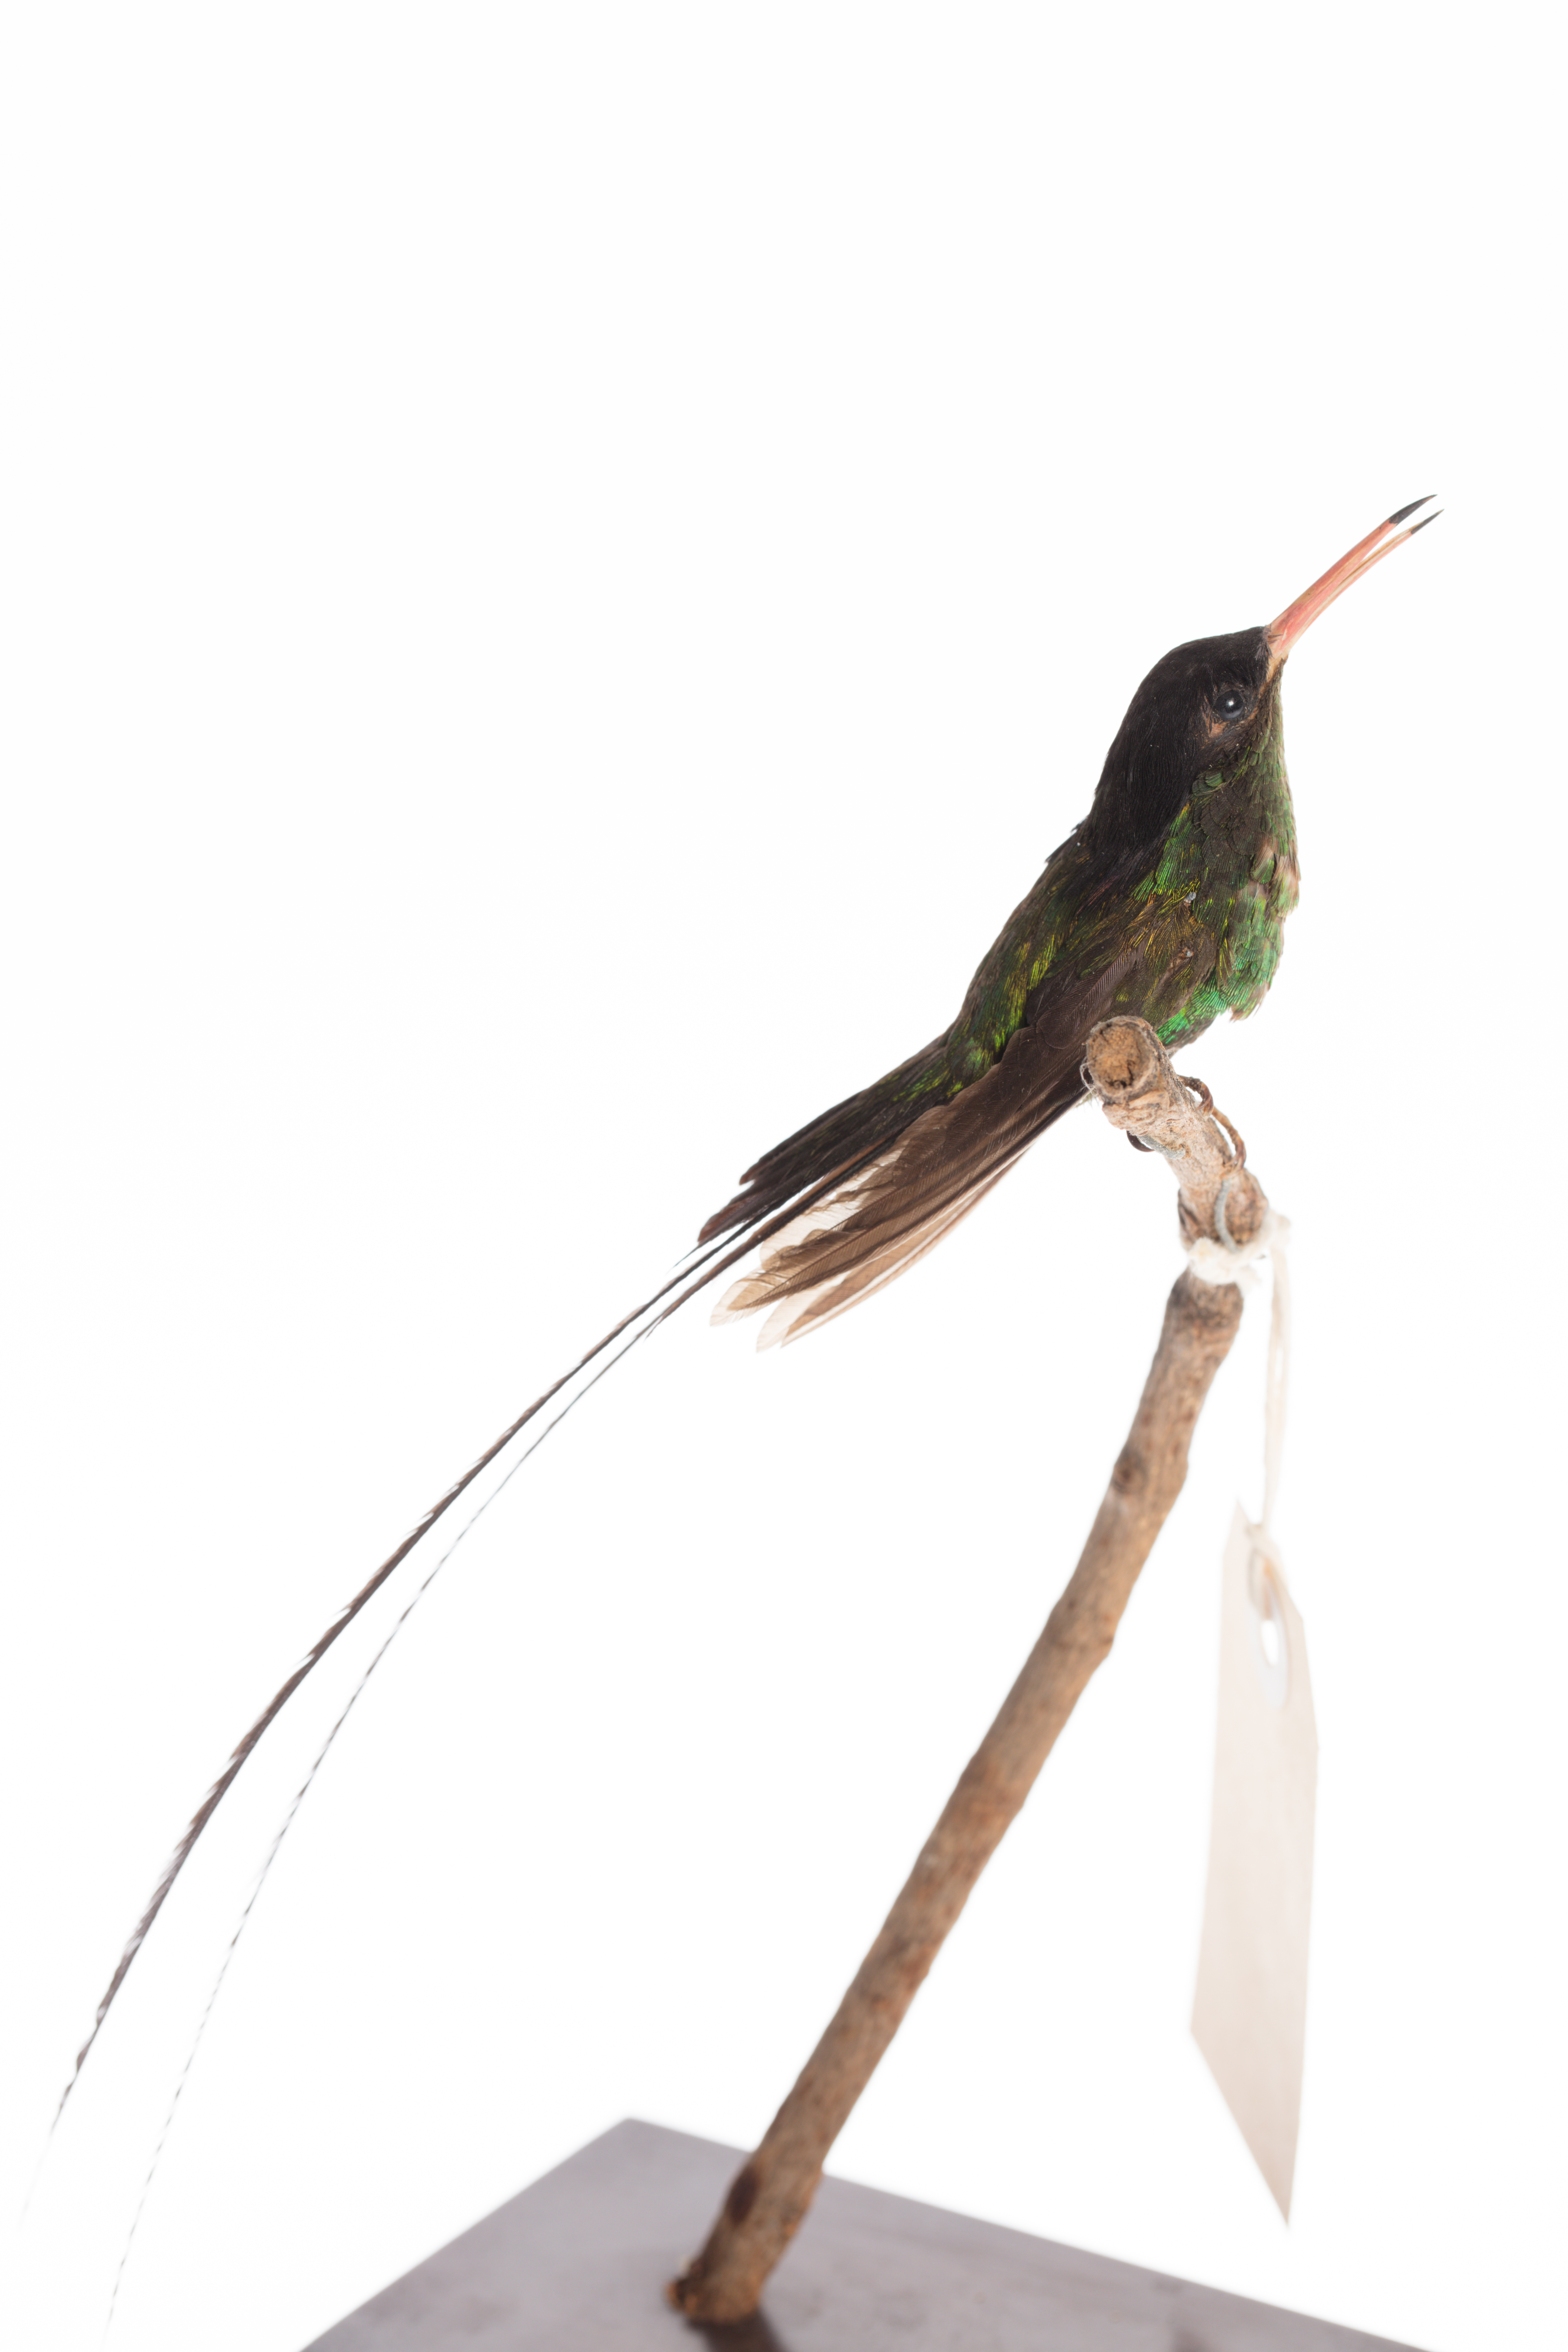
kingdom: Animalia
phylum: Chordata
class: Aves
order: Apodiformes
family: Trochilidae
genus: Trochilus
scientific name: Trochilus polytmus
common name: Red-billed streamertail
